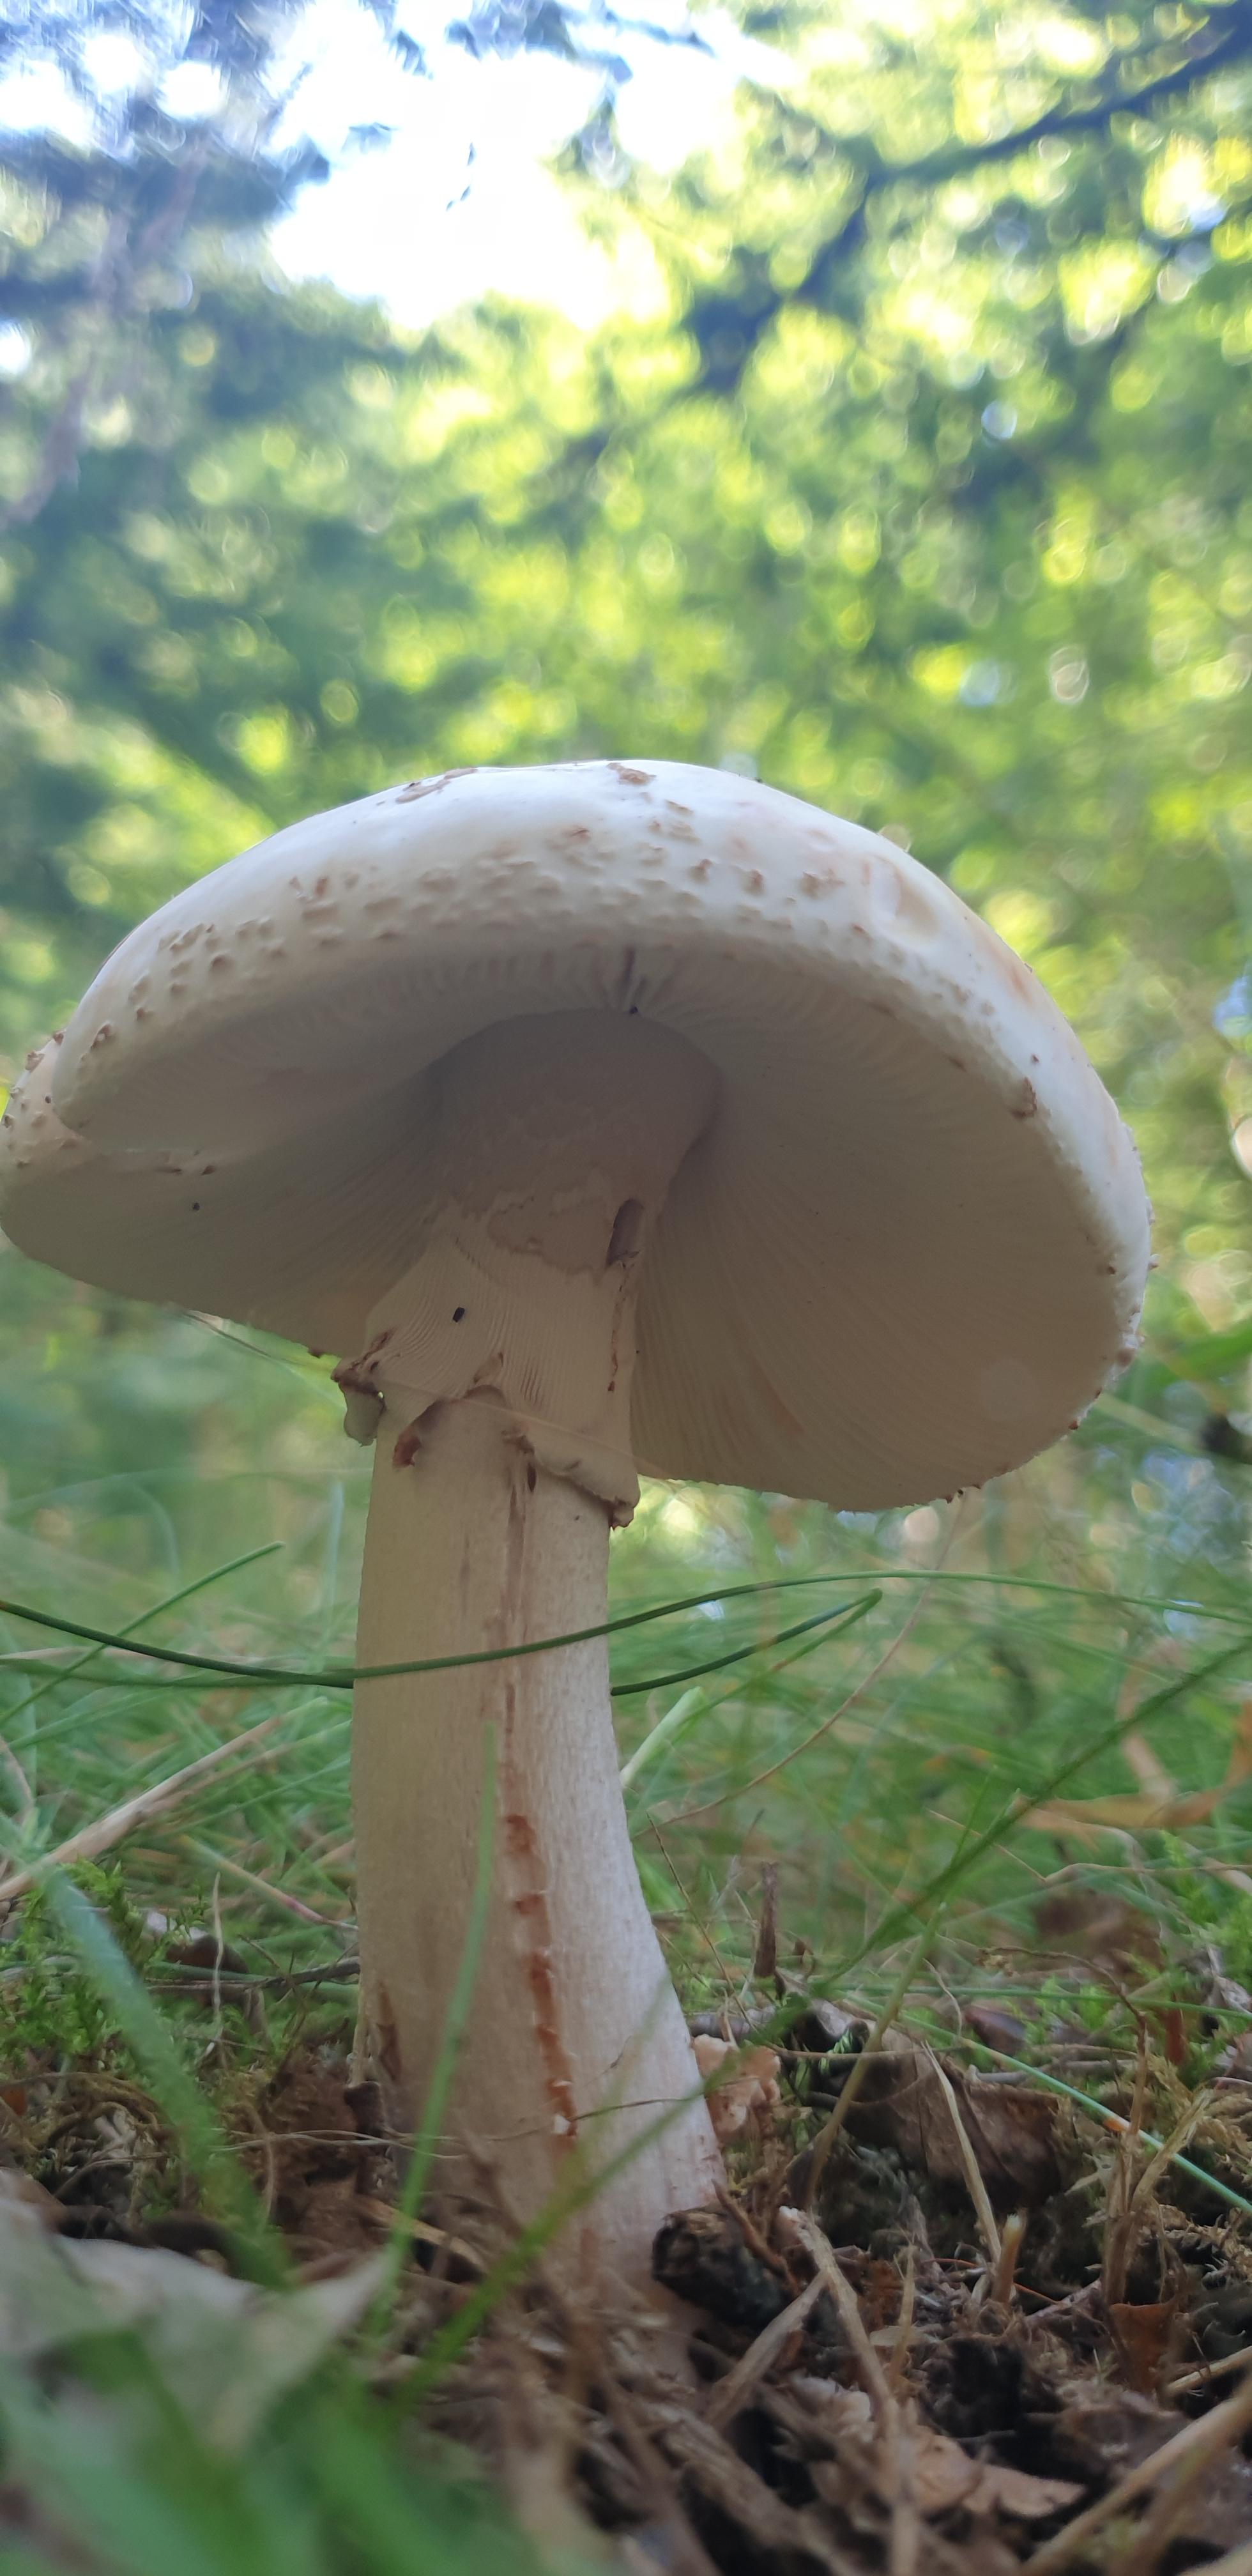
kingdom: Fungi
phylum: Basidiomycota
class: Agaricomycetes
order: Agaricales
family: Amanitaceae
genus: Amanita
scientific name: Amanita rubescens
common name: rødmende fluesvamp
